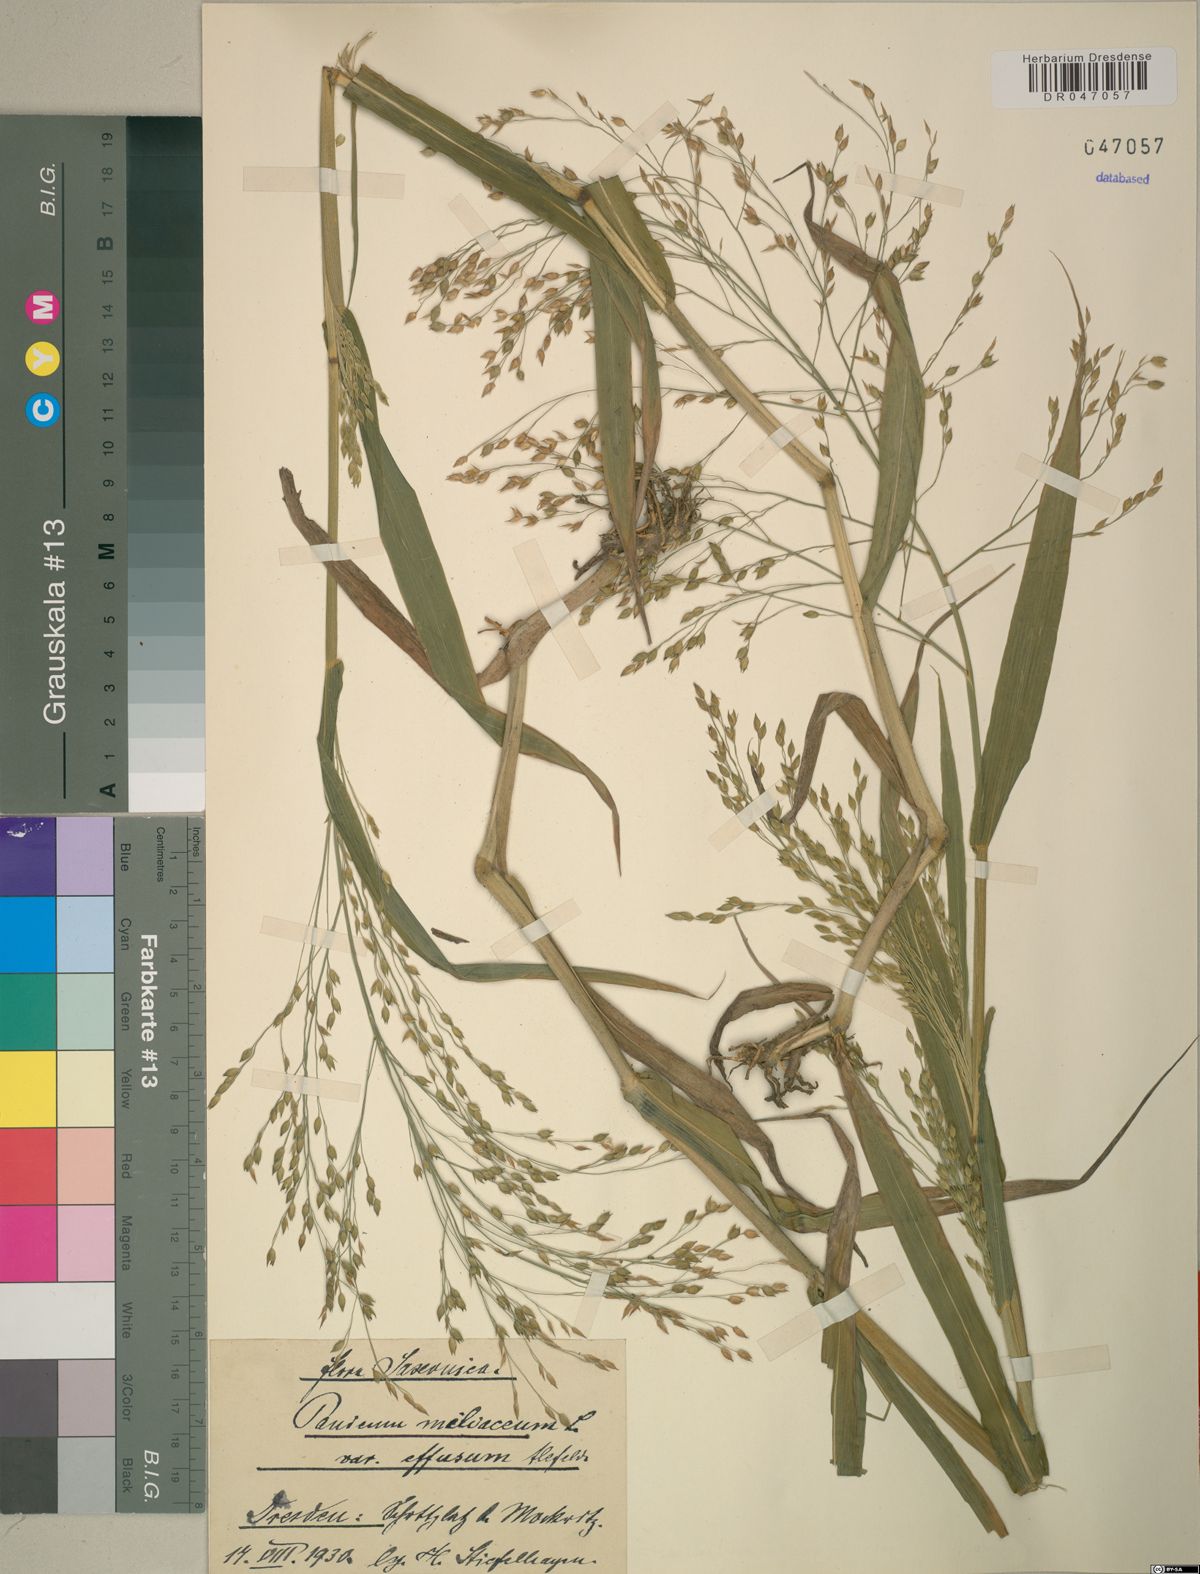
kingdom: Plantae
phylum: Tracheophyta
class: Liliopsida
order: Poales
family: Poaceae
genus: Panicum
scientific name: Panicum miliaceum
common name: Common millet
